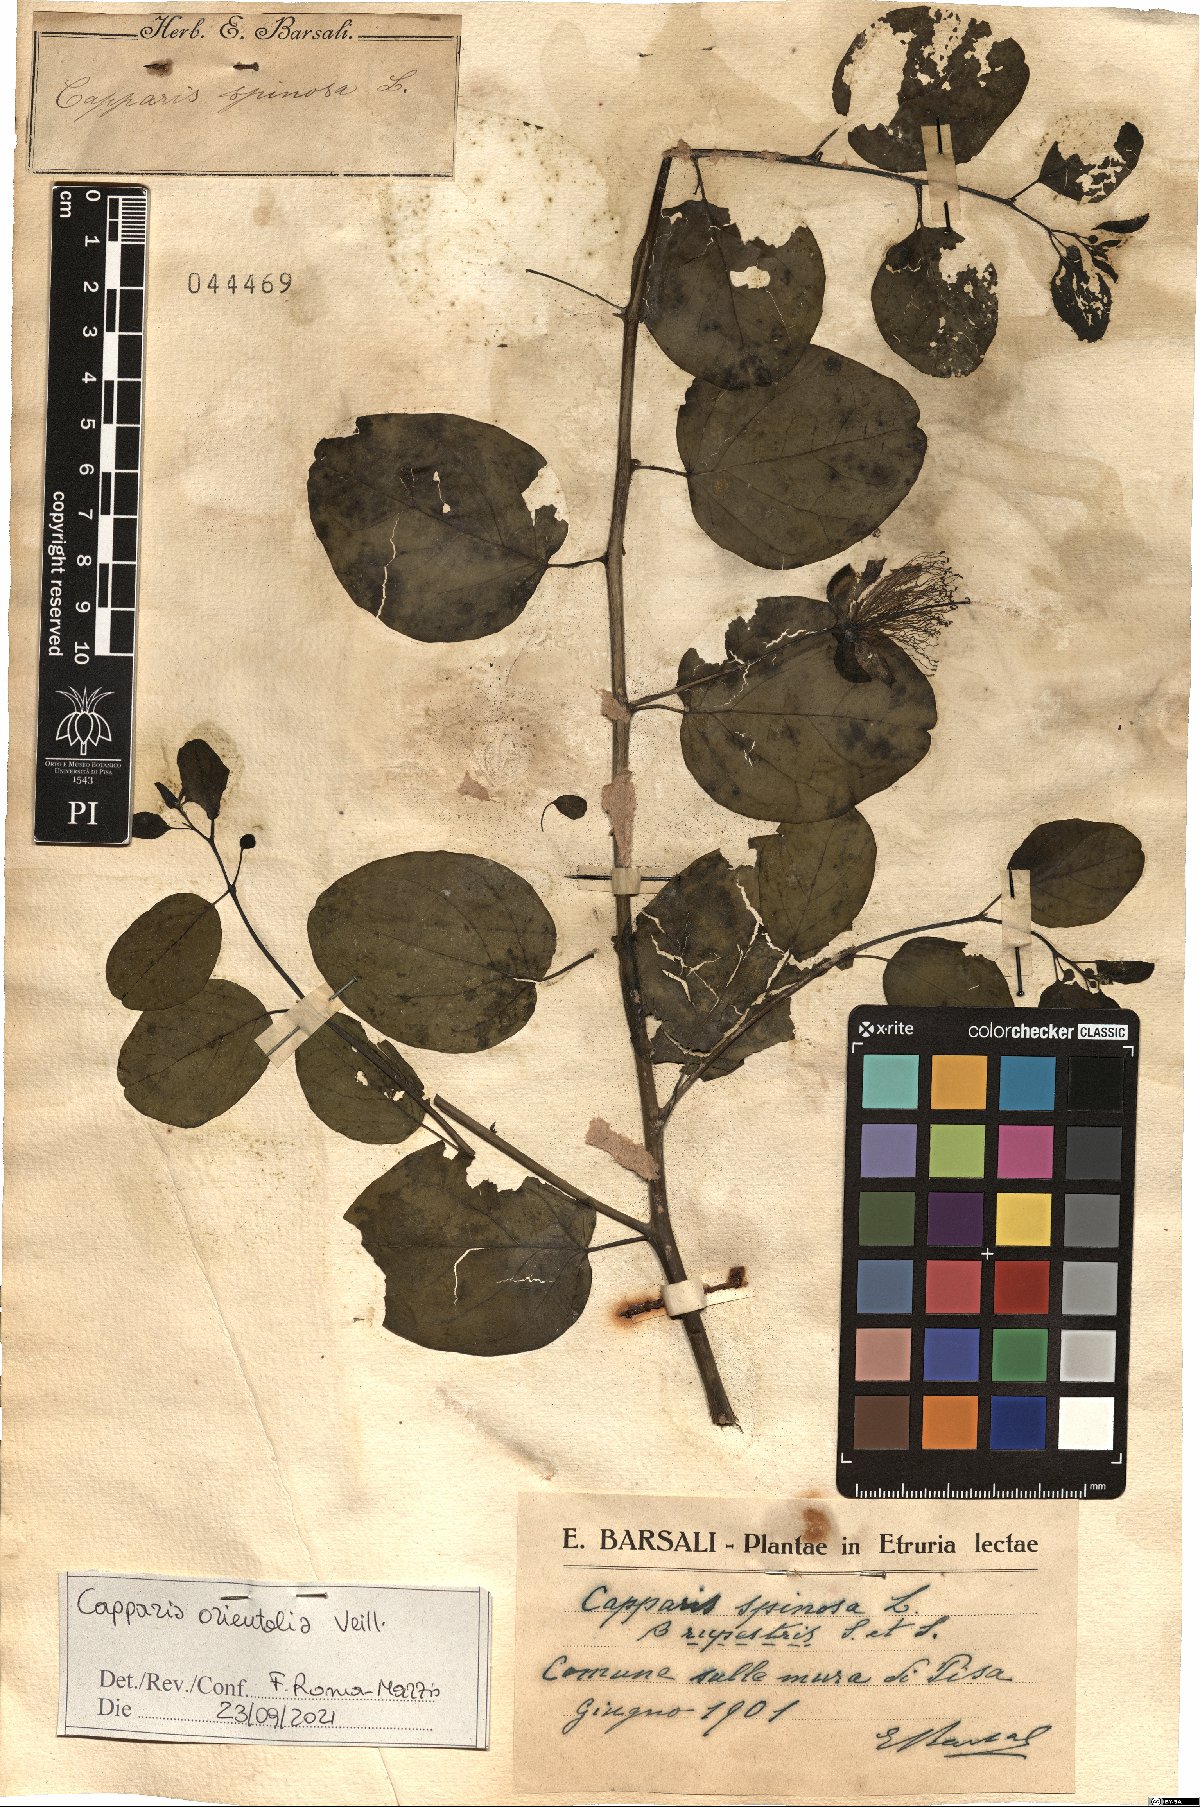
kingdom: Plantae
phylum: Tracheophyta
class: Magnoliopsida
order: Brassicales
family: Capparaceae
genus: Capparis
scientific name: Capparis spinosa
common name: Caper
